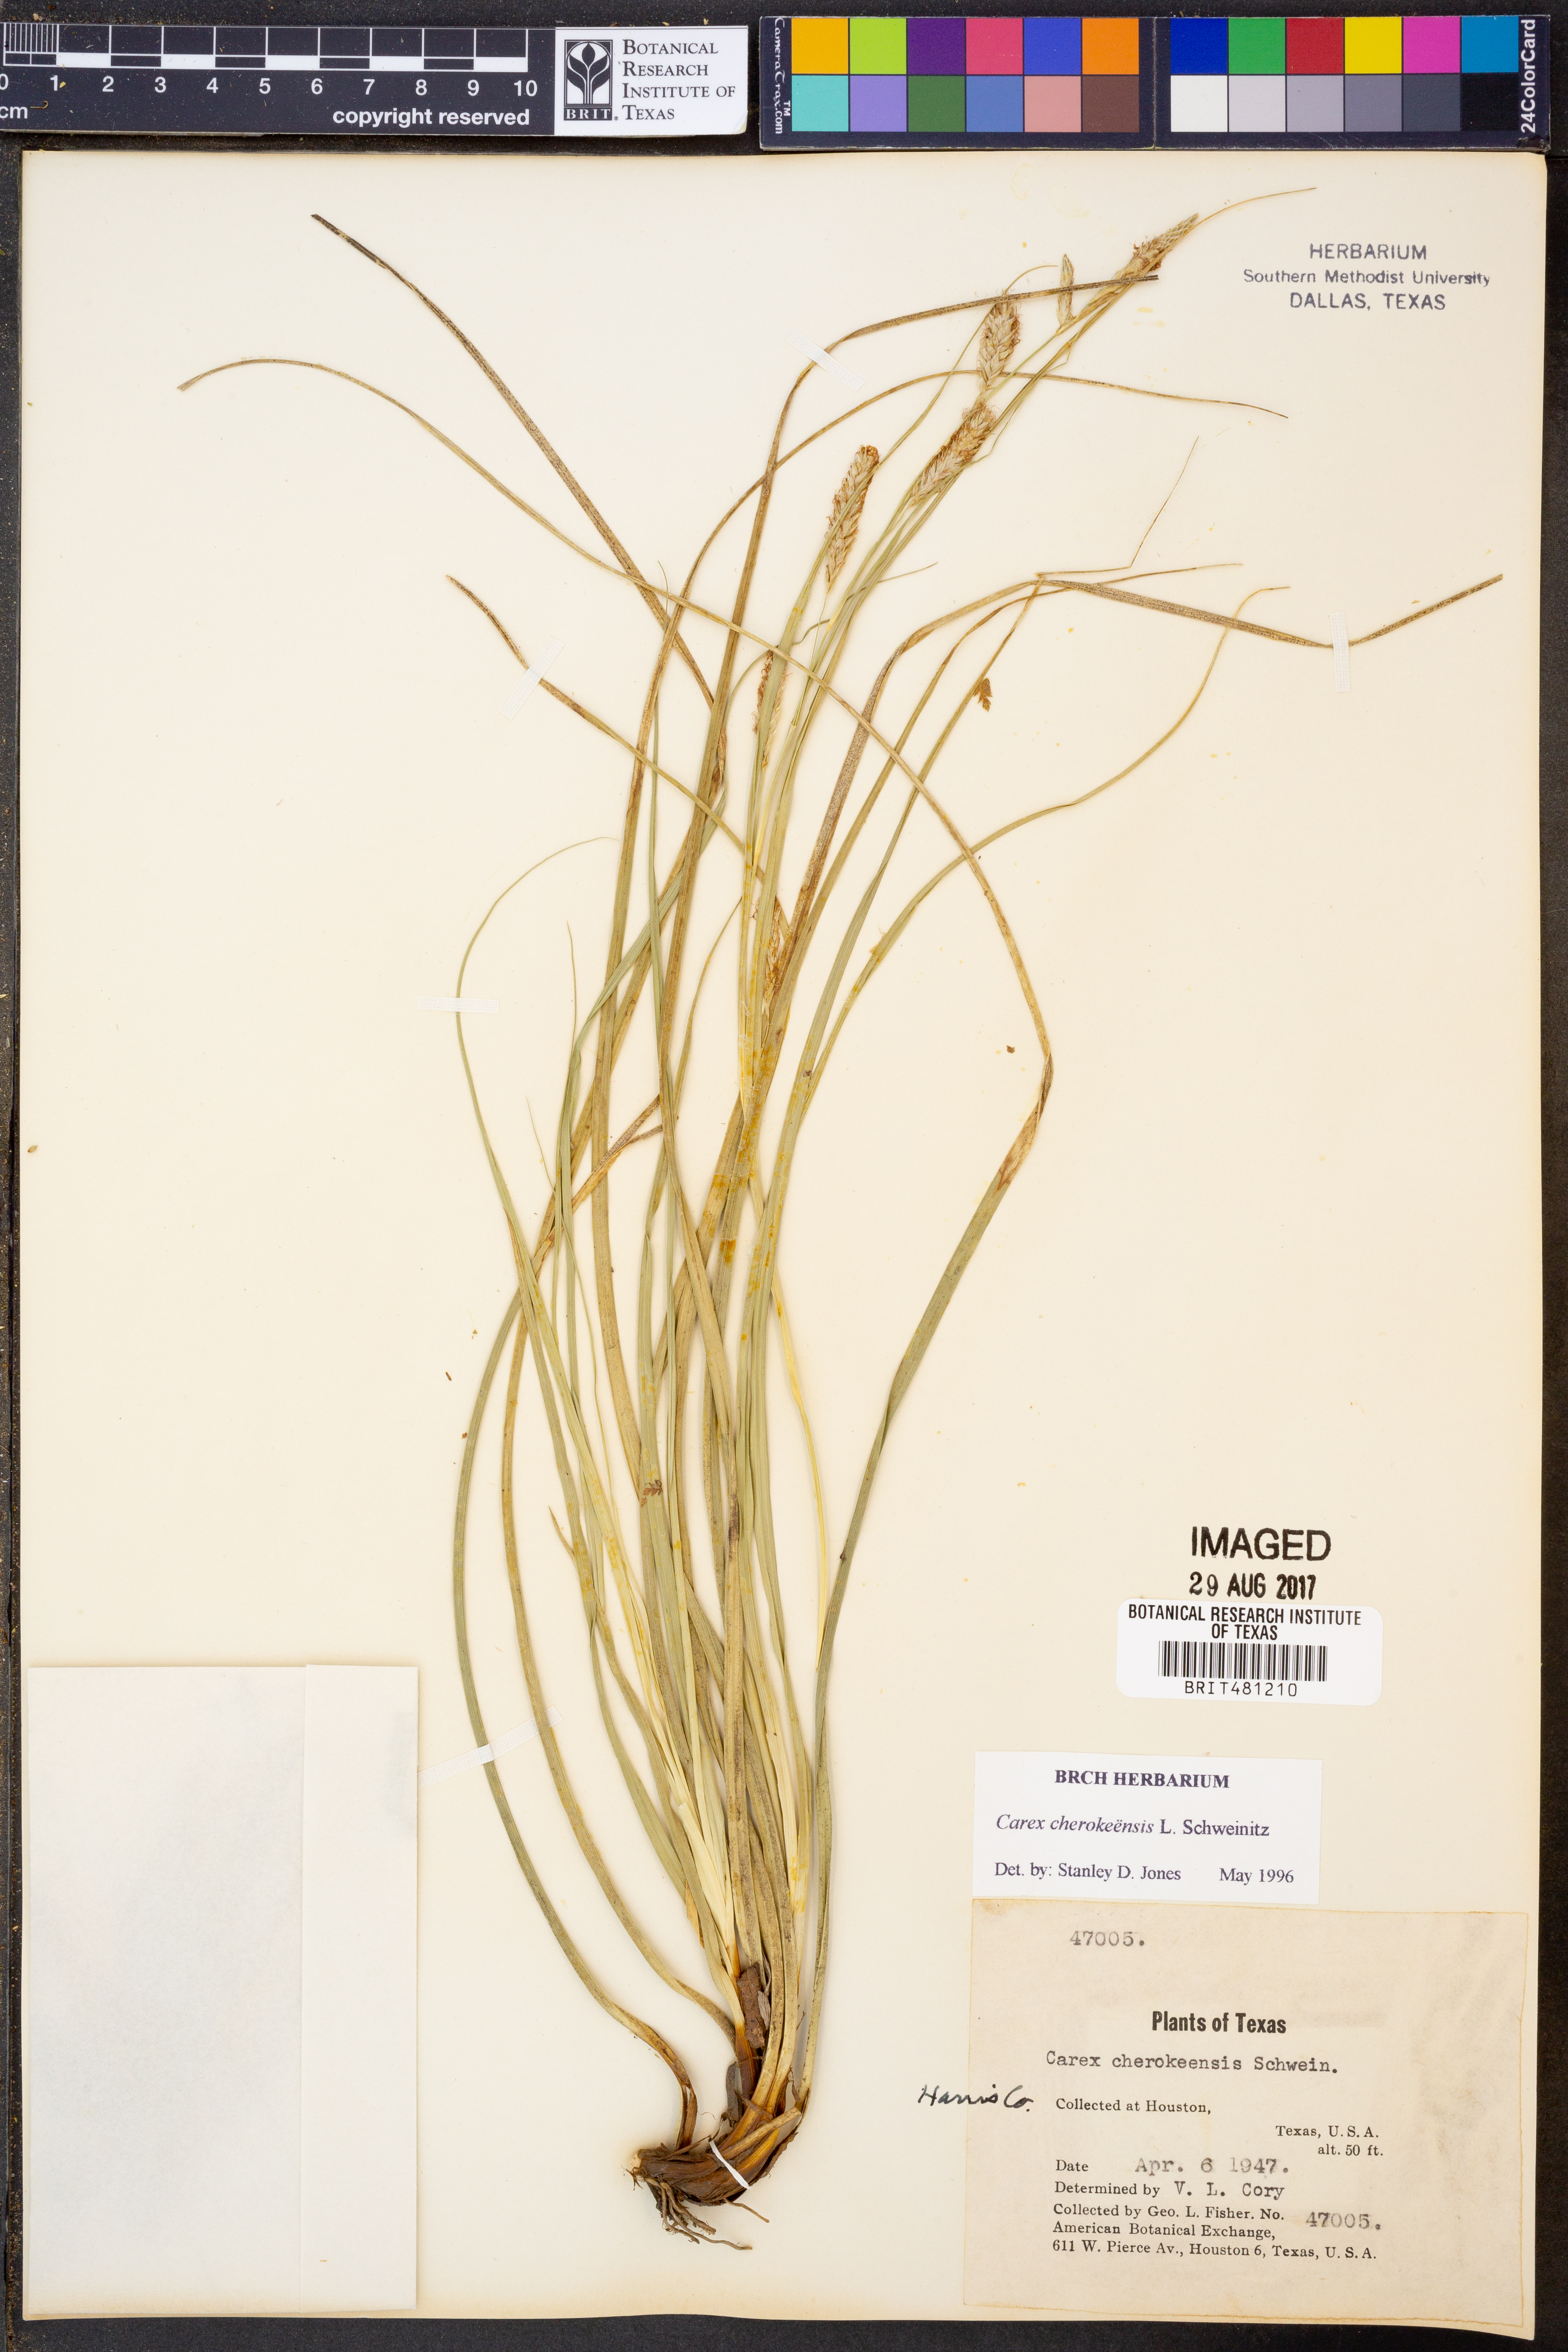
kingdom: Plantae
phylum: Tracheophyta
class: Liliopsida
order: Poales
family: Cyperaceae
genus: Carex
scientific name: Carex cherokeensis
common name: Cherokee sedge
